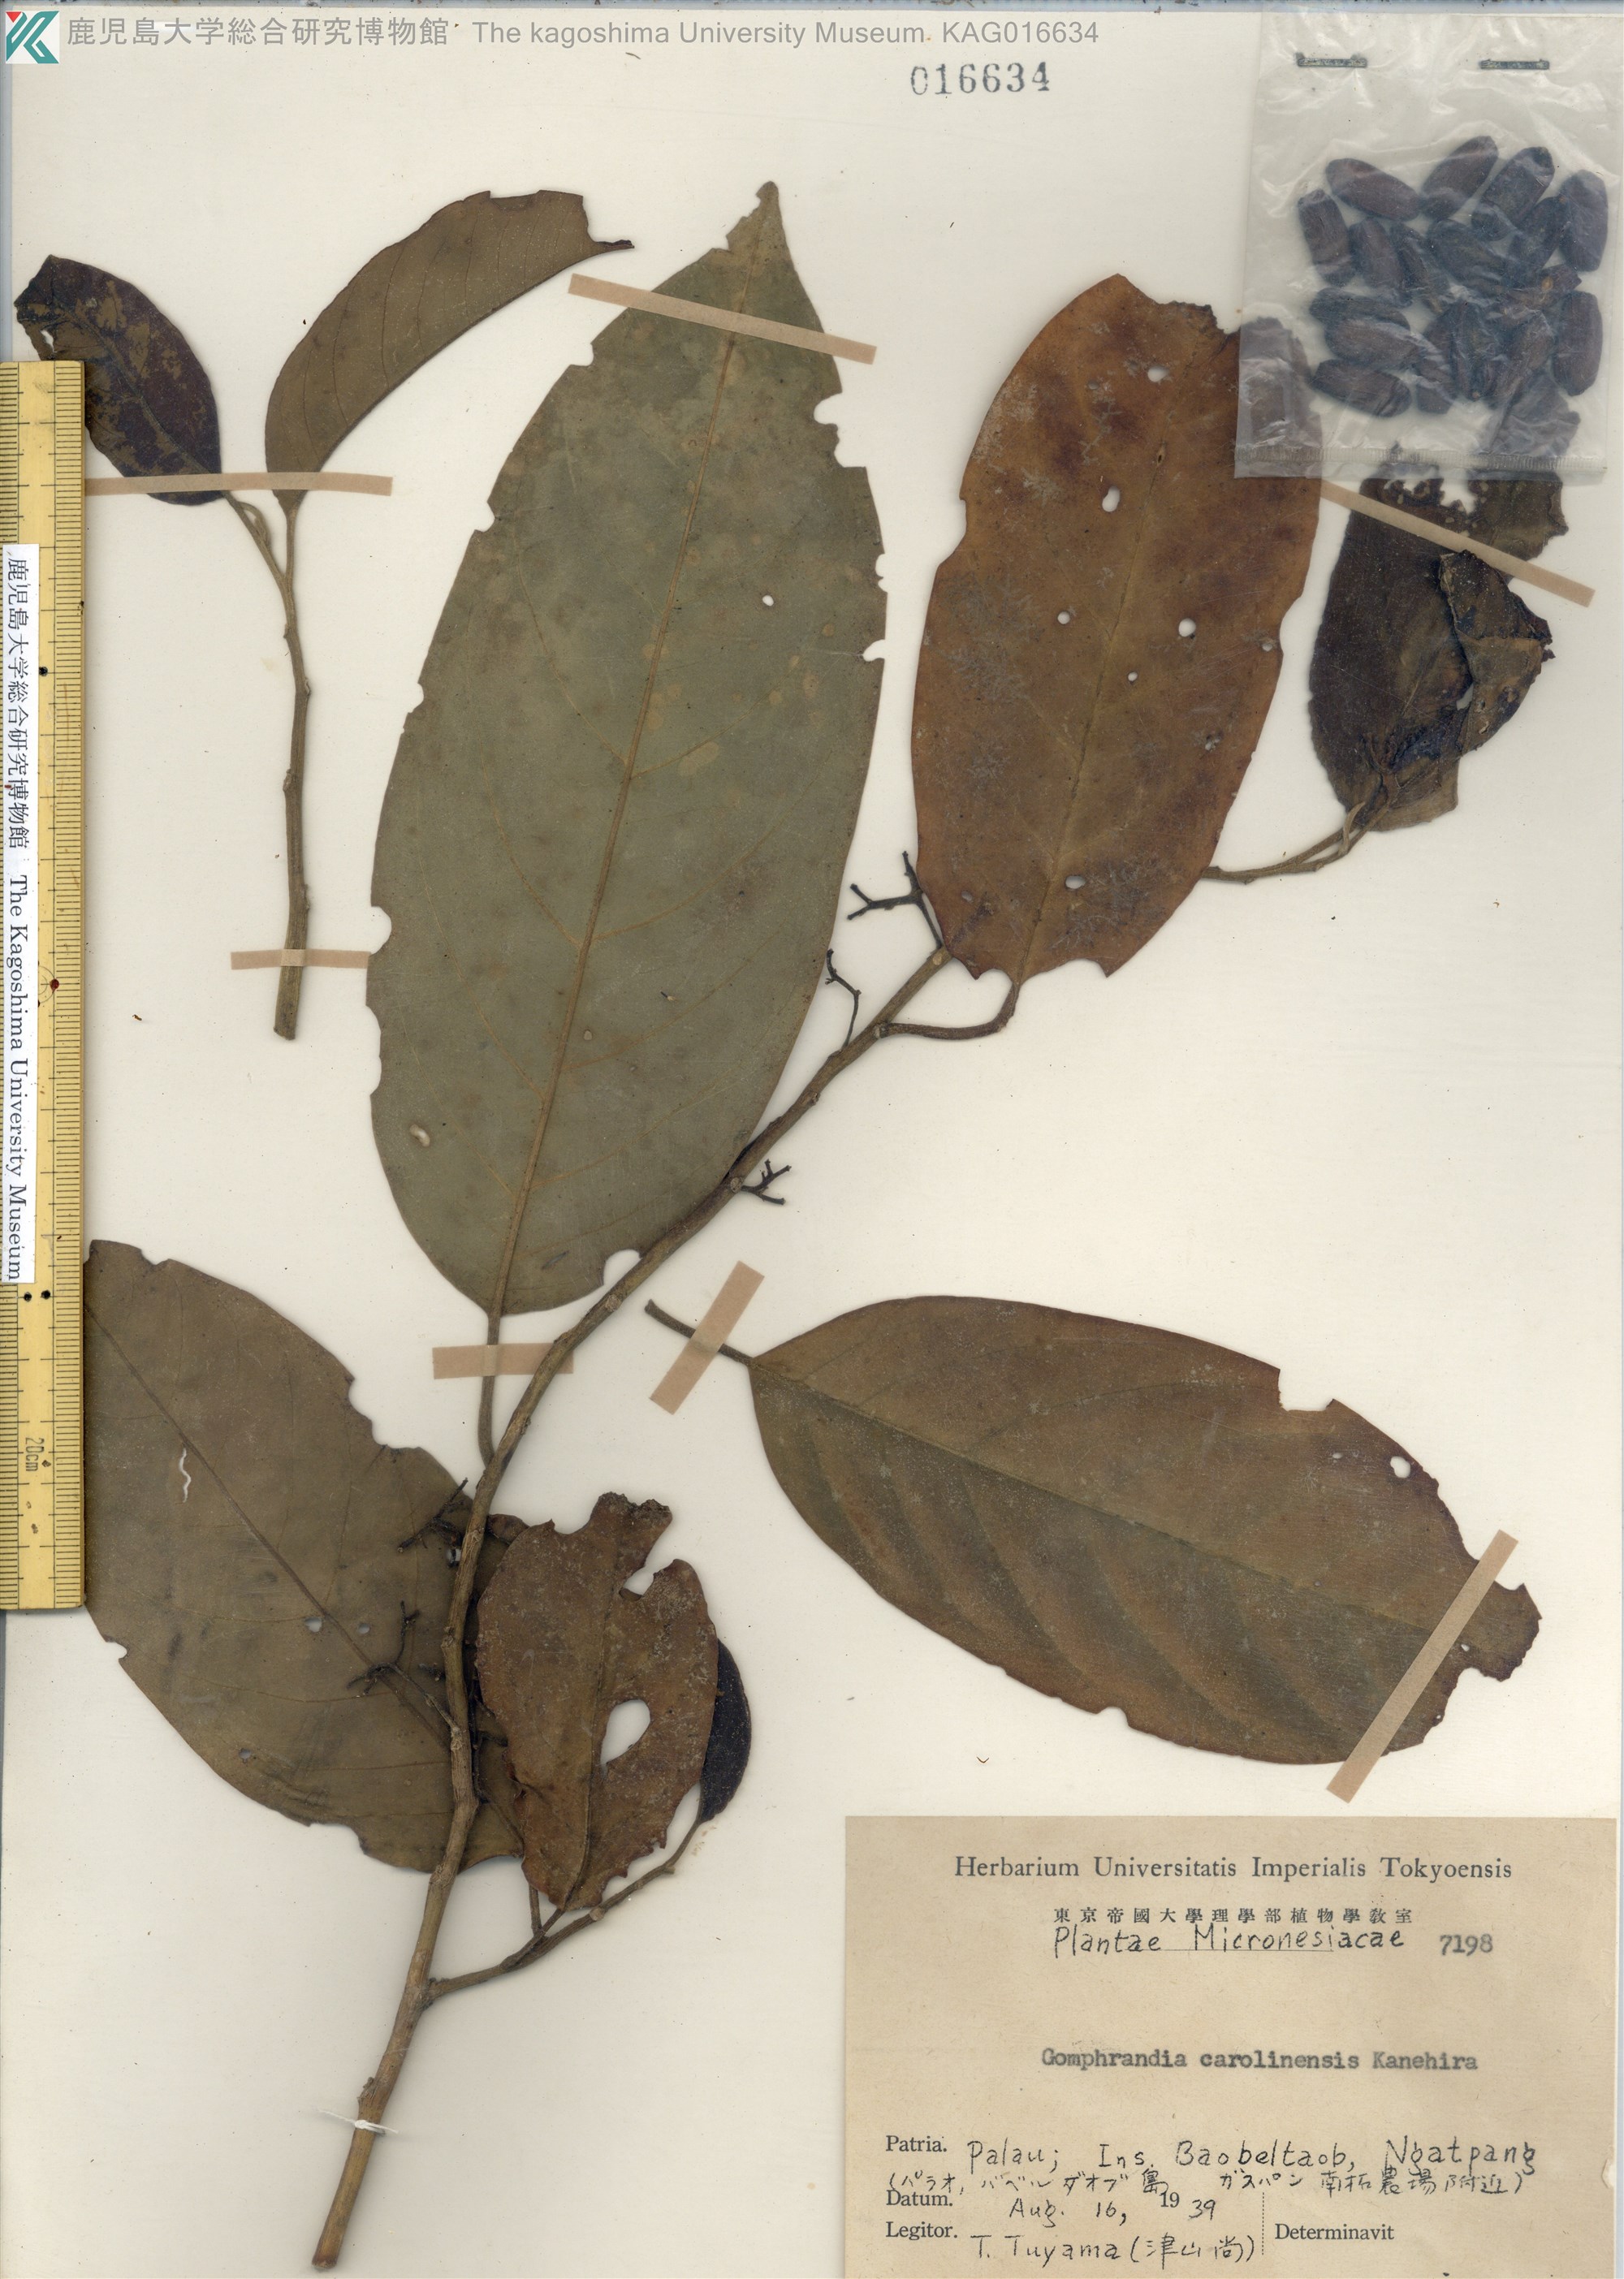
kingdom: Plantae
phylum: Tracheophyta
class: Magnoliopsida
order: Cardiopteridales
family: Stemonuraceae
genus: Medusanthera
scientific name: Medusanthera laxiflora
